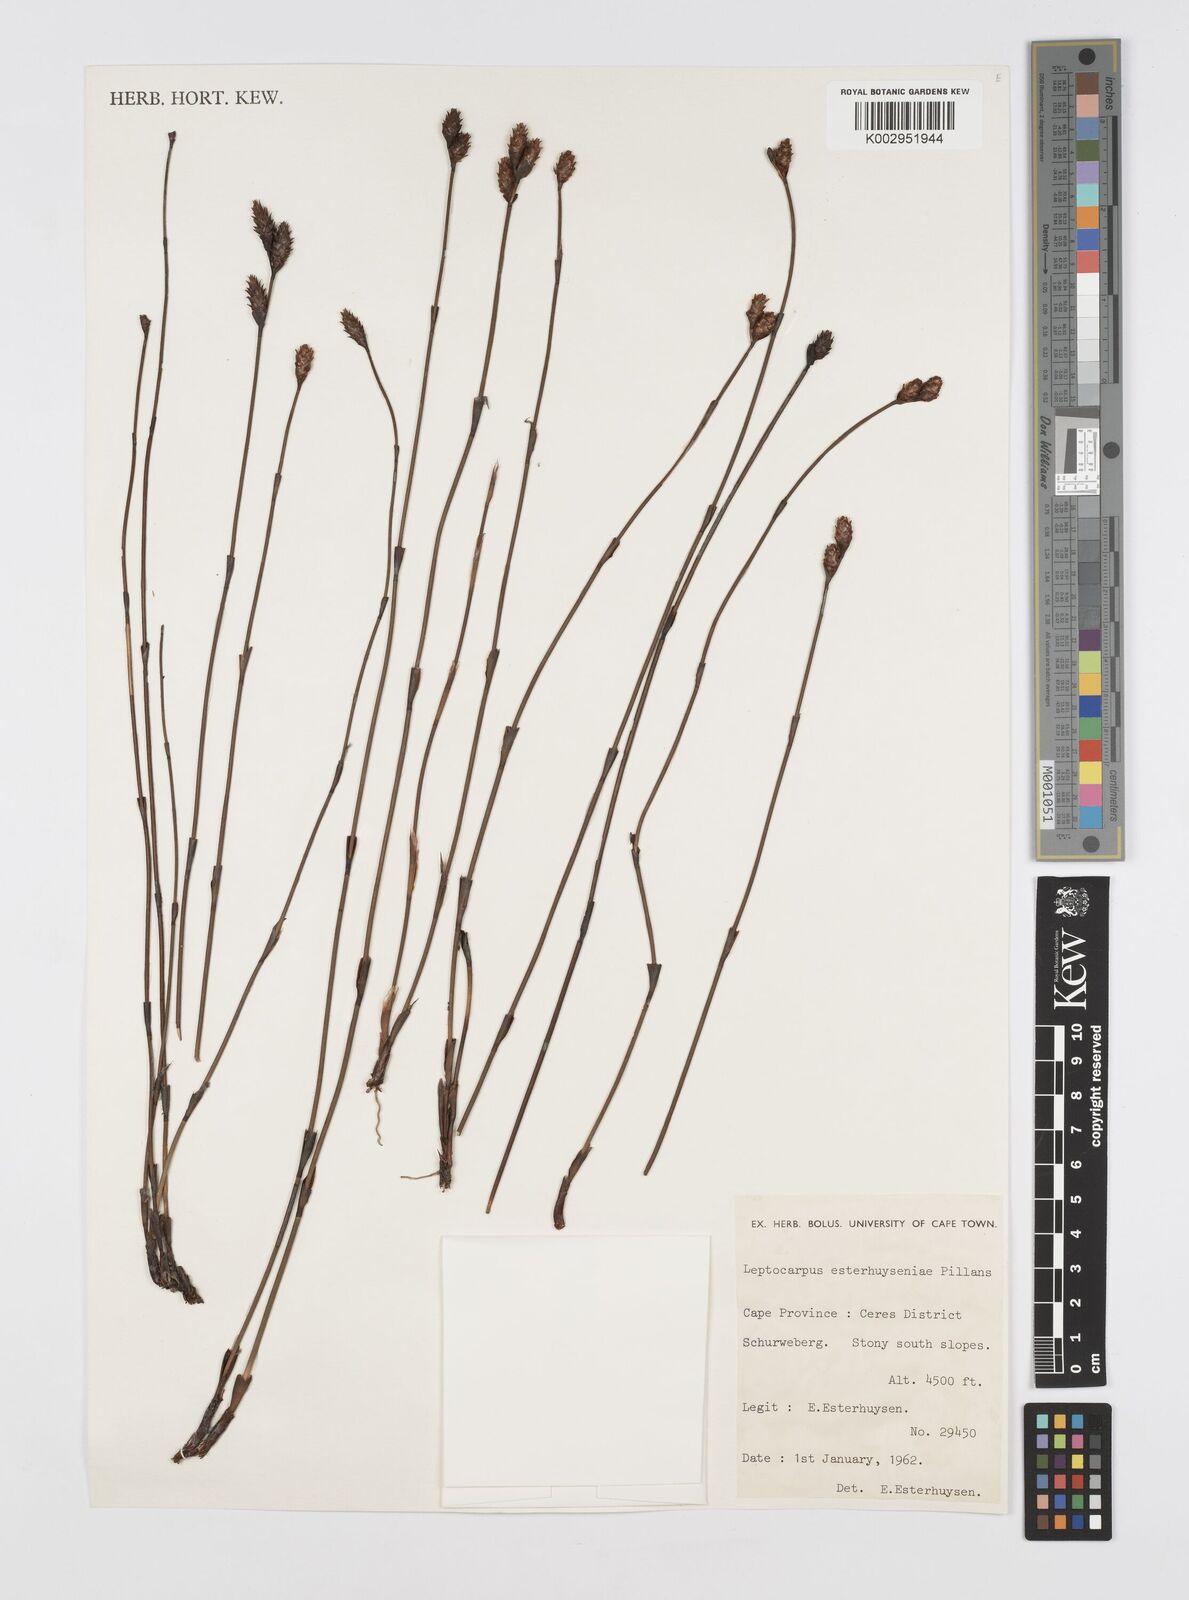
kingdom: Plantae
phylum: Tracheophyta
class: Liliopsida
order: Poales
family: Restionaceae
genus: Restio
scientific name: Restio esterhuyseniae
